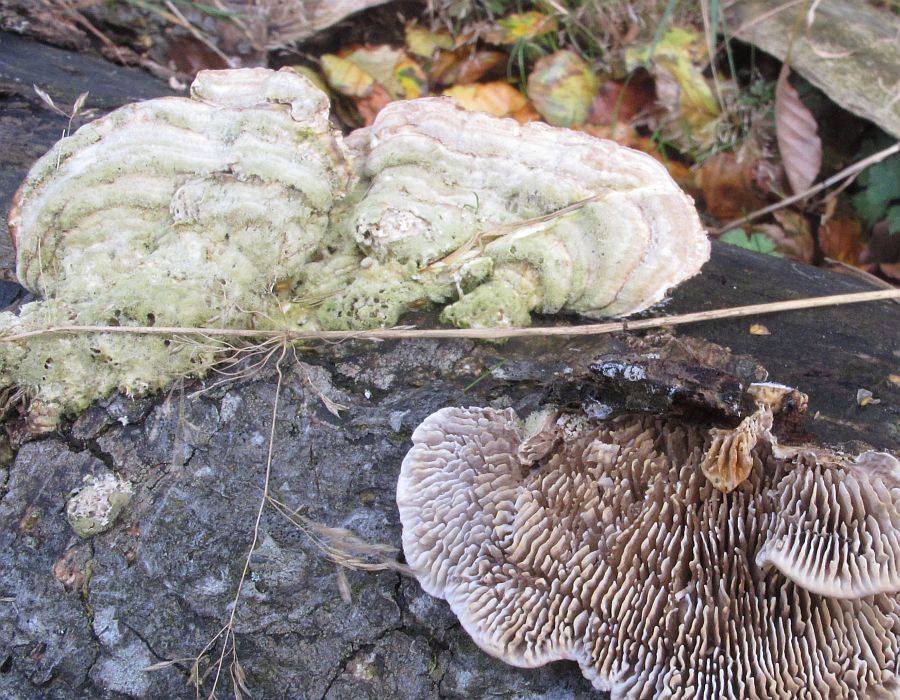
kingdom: Fungi
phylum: Basidiomycota
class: Agaricomycetes
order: Polyporales
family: Polyporaceae
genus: Lenzites
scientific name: Lenzites betulinus
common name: birke-læderporesvamp
